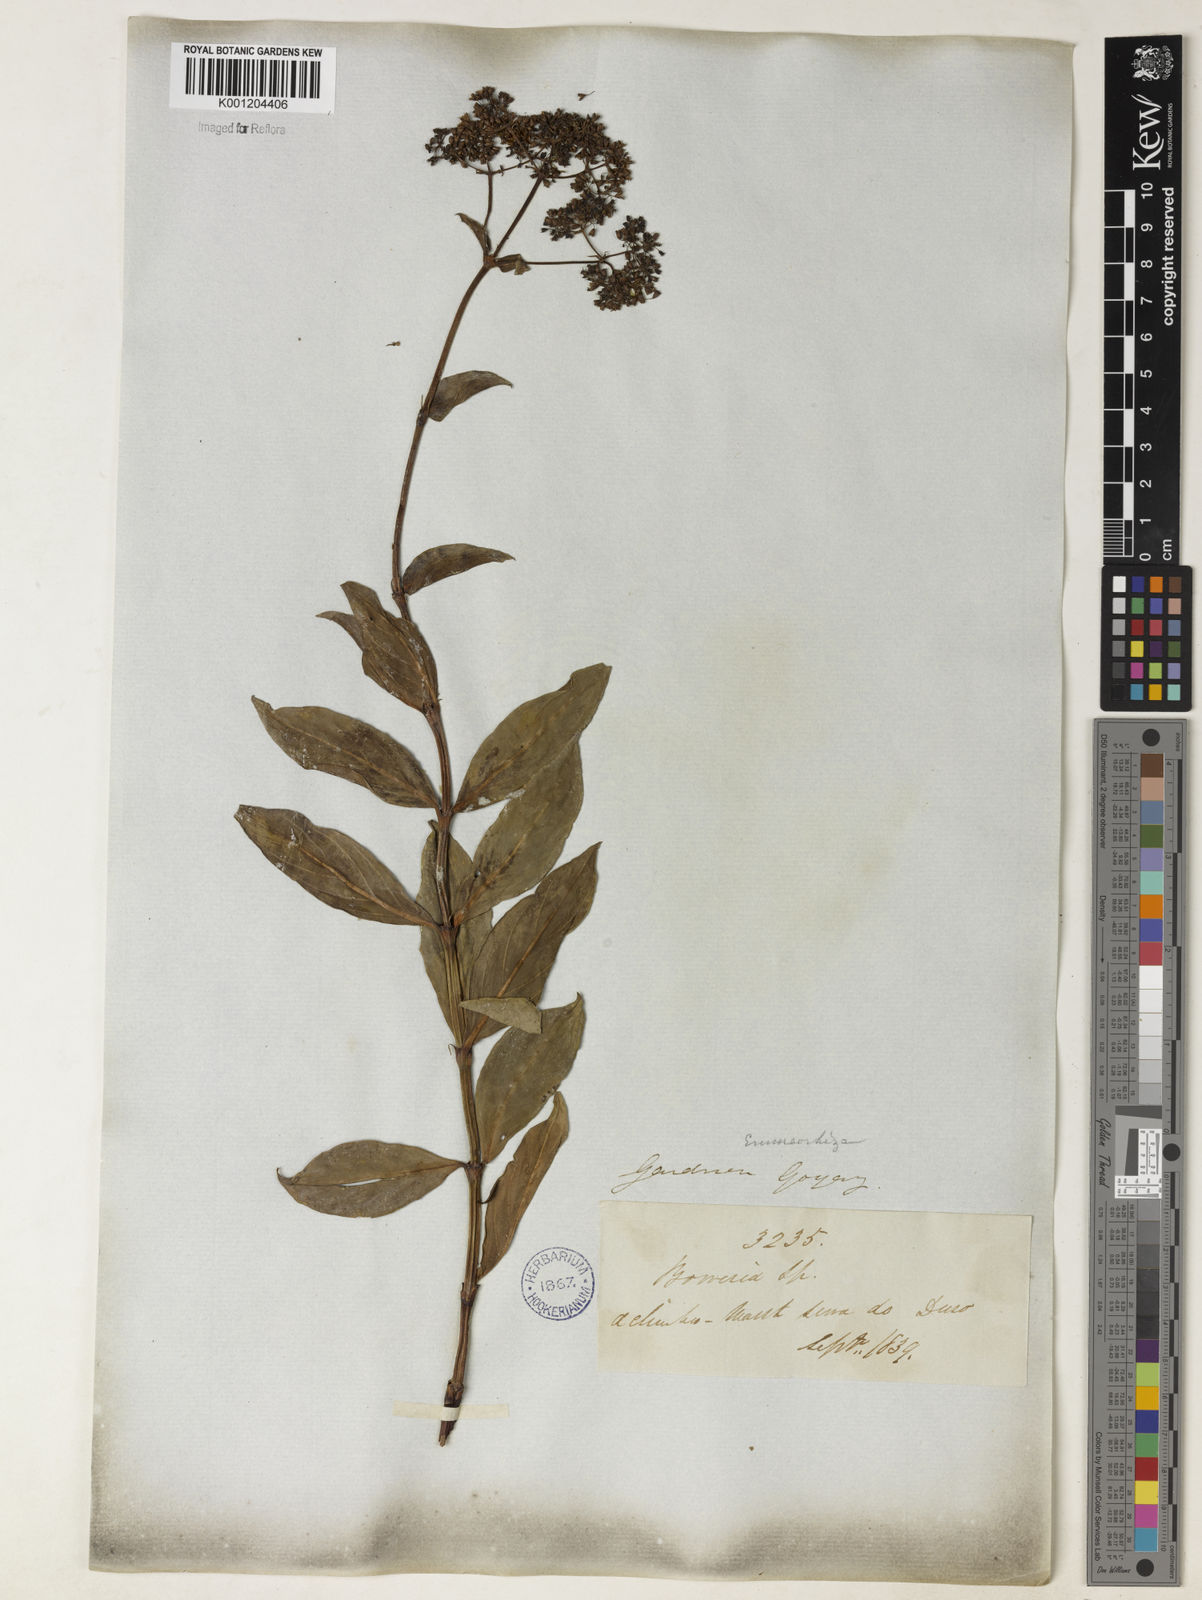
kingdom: Plantae
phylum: Tracheophyta
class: Magnoliopsida
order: Gentianales
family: Rubiaceae
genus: Emmeorhiza
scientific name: Emmeorhiza
